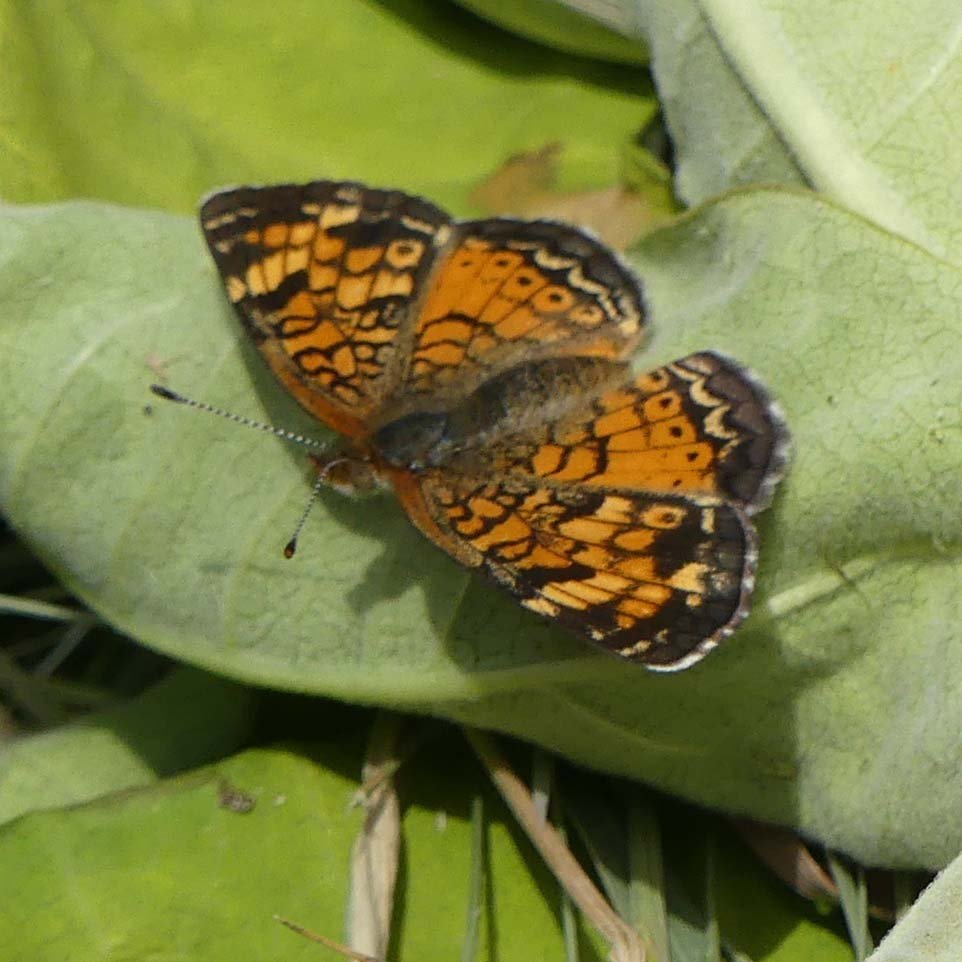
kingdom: Animalia
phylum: Arthropoda
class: Insecta
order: Lepidoptera
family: Nymphalidae
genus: Phyciodes
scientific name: Phyciodes tharos
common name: Pearl Crescent
